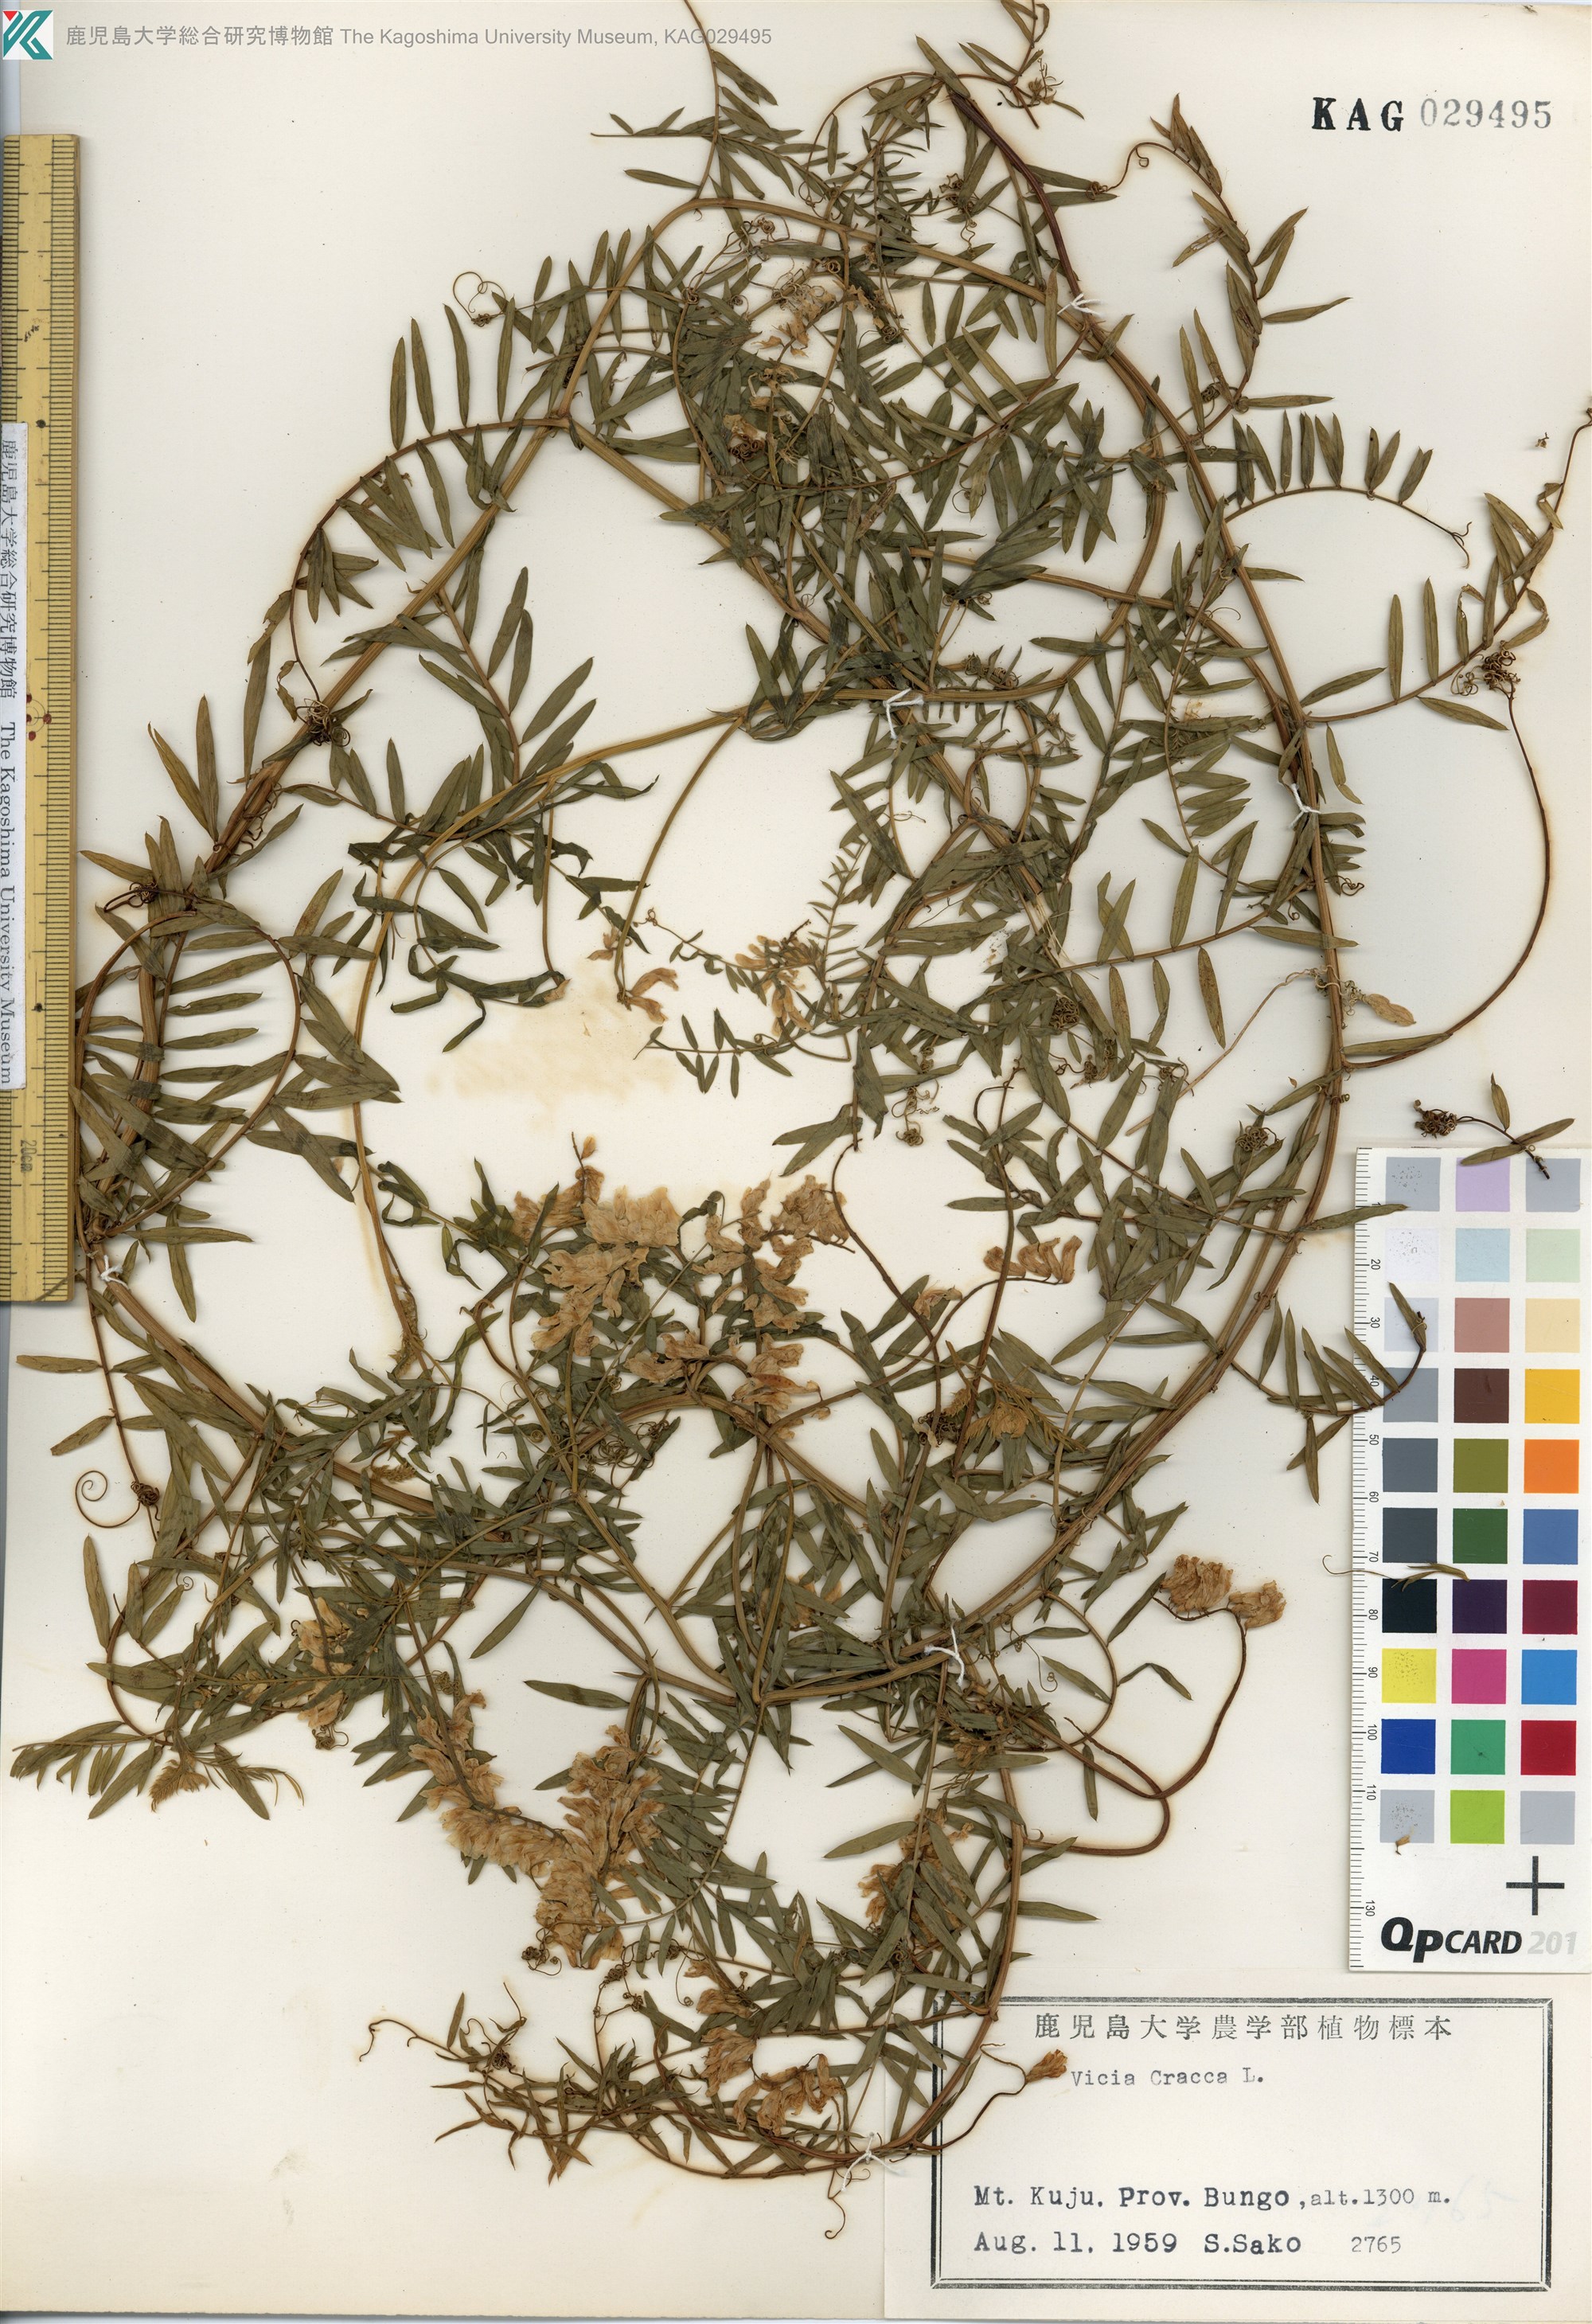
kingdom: Plantae
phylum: Tracheophyta
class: Magnoliopsida
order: Fabales
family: Fabaceae
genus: Vicia
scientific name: Vicia cracca
